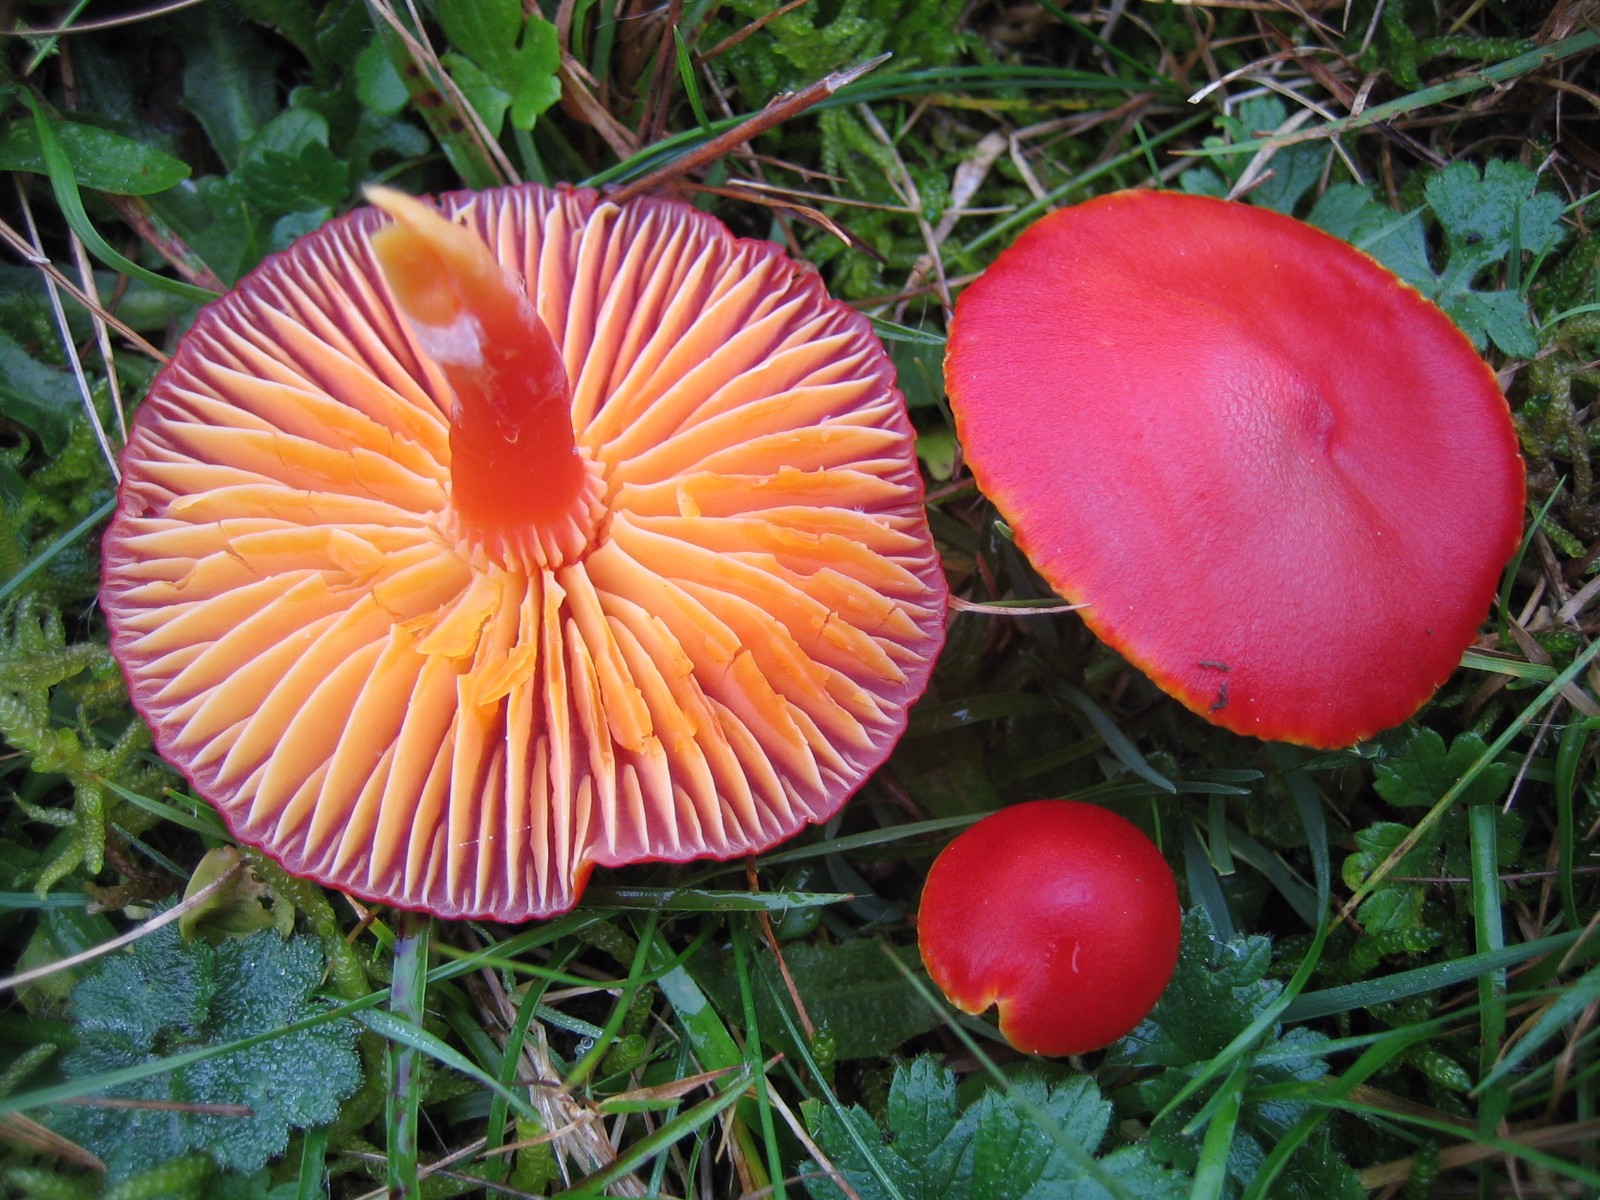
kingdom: Fungi
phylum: Basidiomycota
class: Agaricomycetes
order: Agaricales
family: Hygrophoraceae
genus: Hygrocybe
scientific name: Hygrocybe coccinea
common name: cinnober-vokshat
